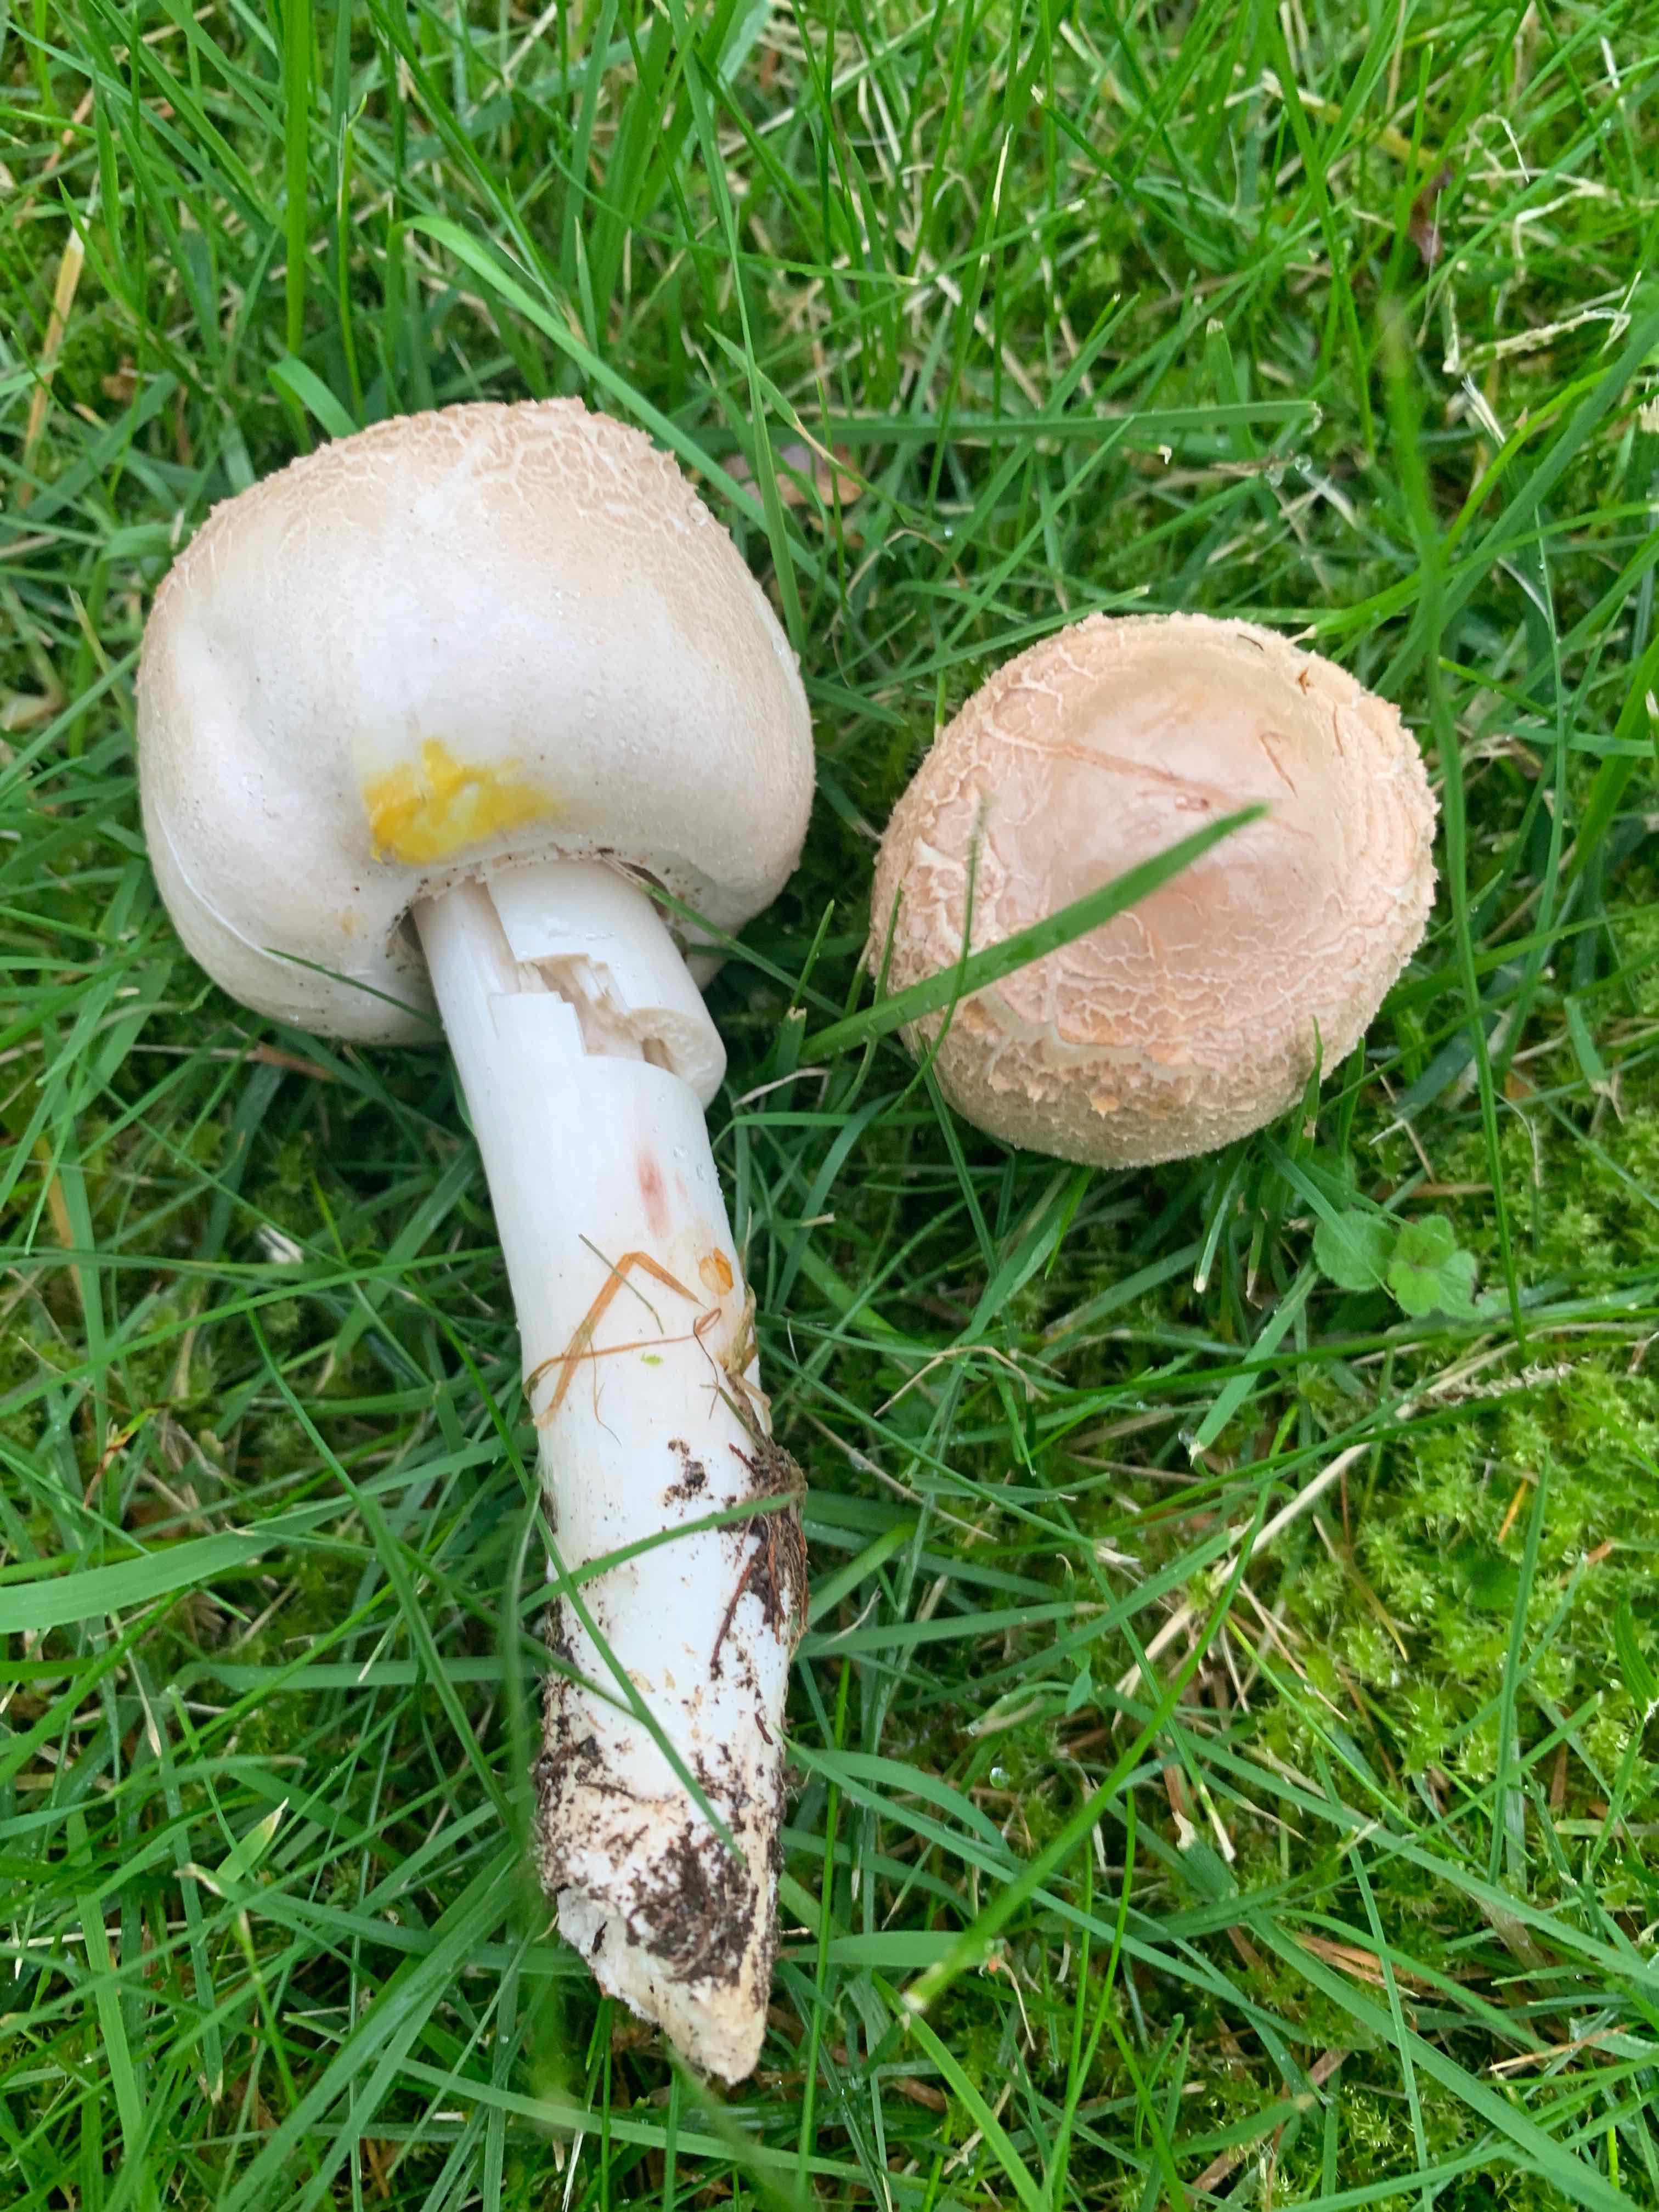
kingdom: Fungi
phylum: Basidiomycota
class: Agaricomycetes
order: Agaricales
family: Agaricaceae
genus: Agaricus
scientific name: Agaricus xanthodermus
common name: karbol-champignon
